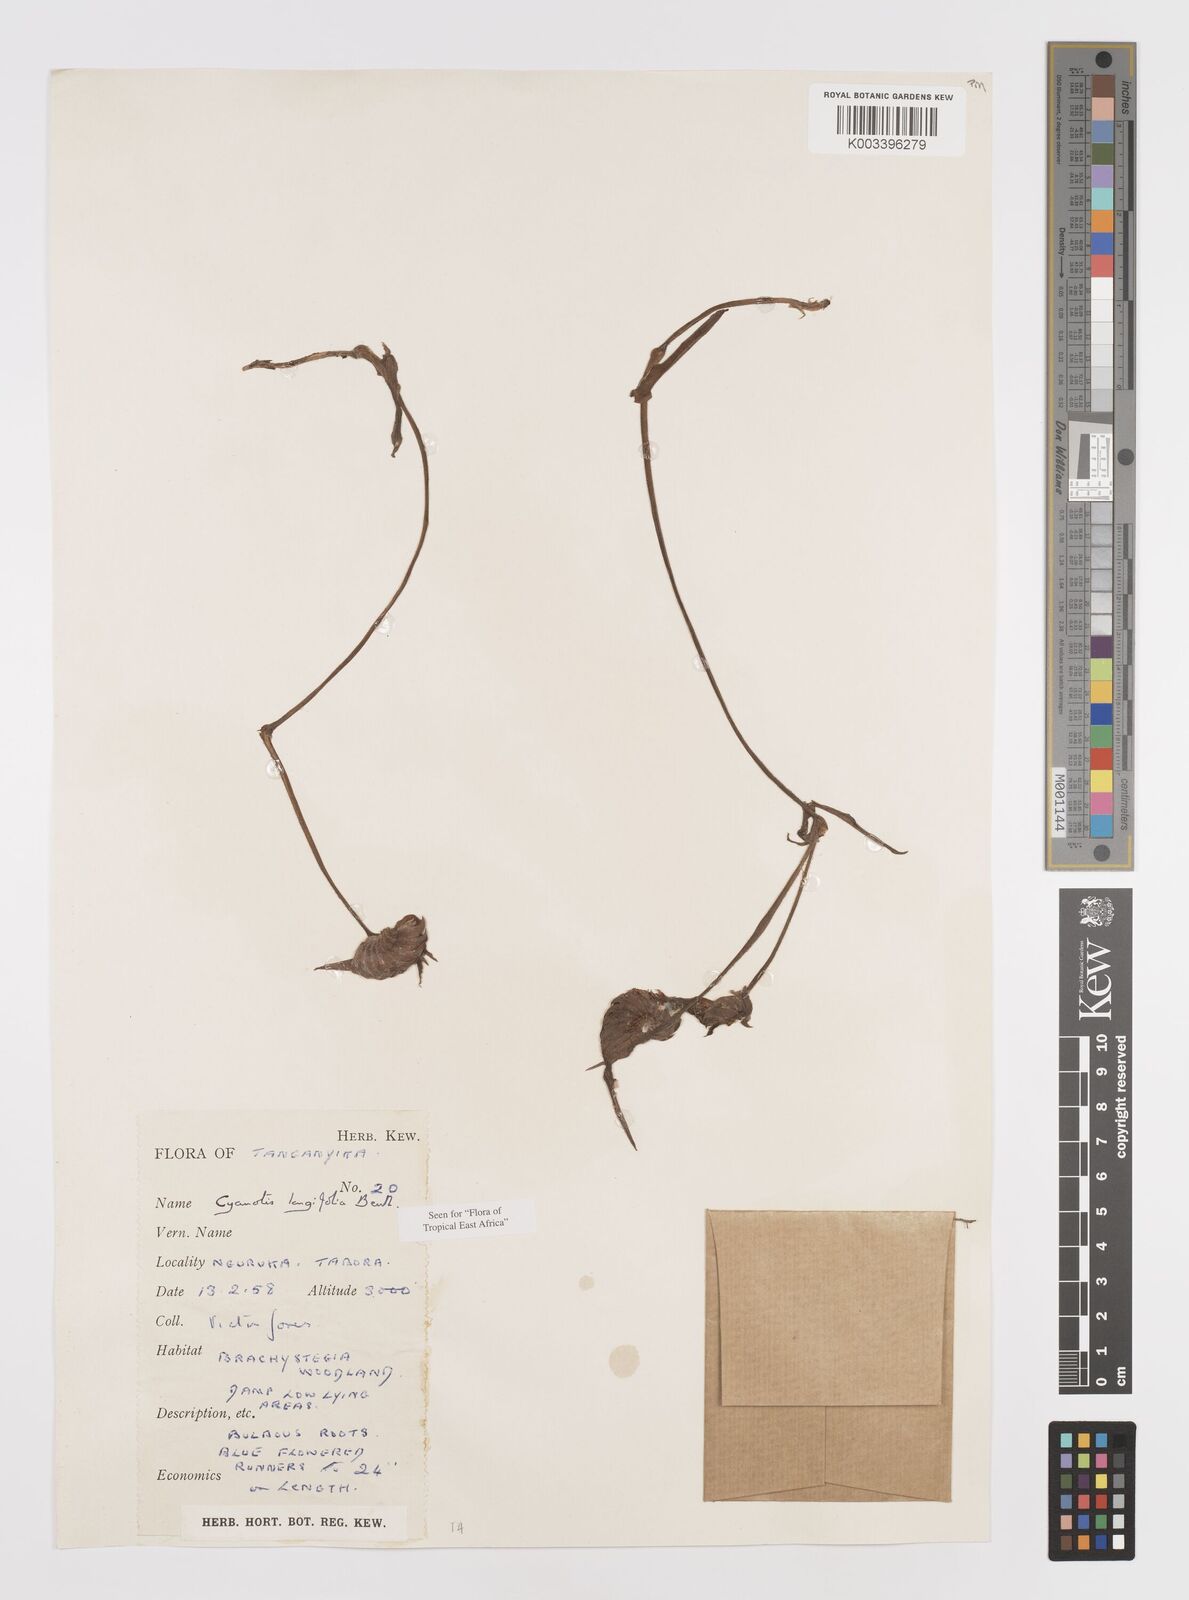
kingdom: Plantae
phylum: Tracheophyta
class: Liliopsida
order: Commelinales
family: Commelinaceae
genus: Cyanotis
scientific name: Cyanotis longifolia
